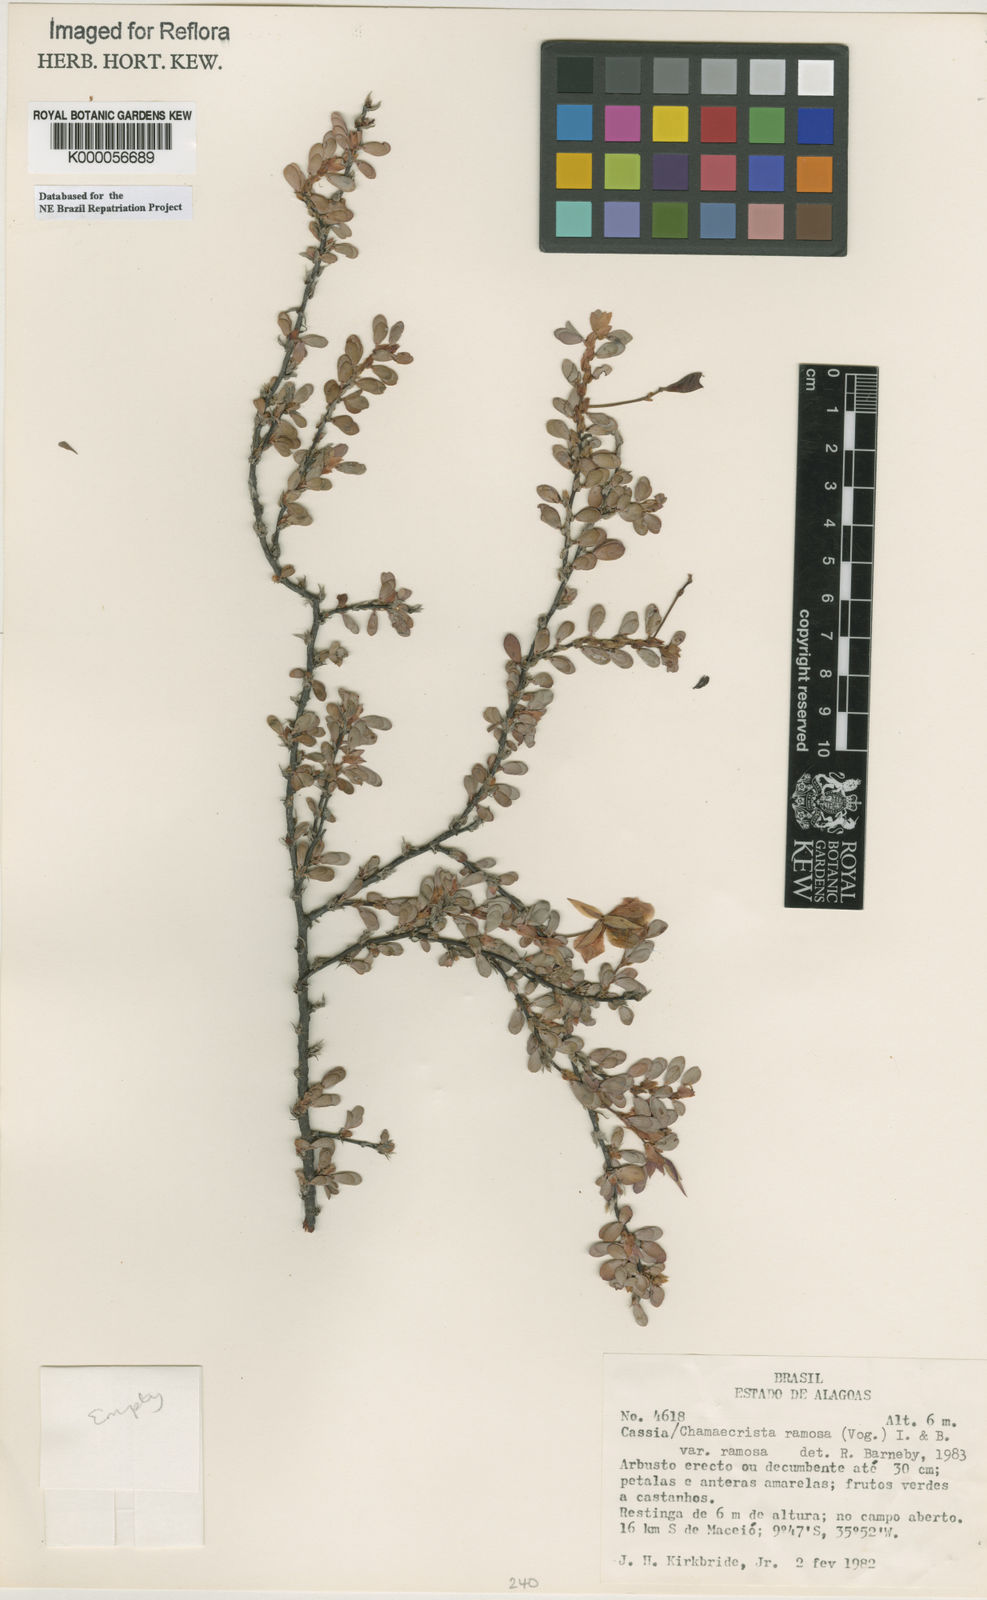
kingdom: Plantae
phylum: Tracheophyta
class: Magnoliopsida
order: Fabales
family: Fabaceae
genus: Chamaecrista
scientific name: Chamaecrista ramosa
